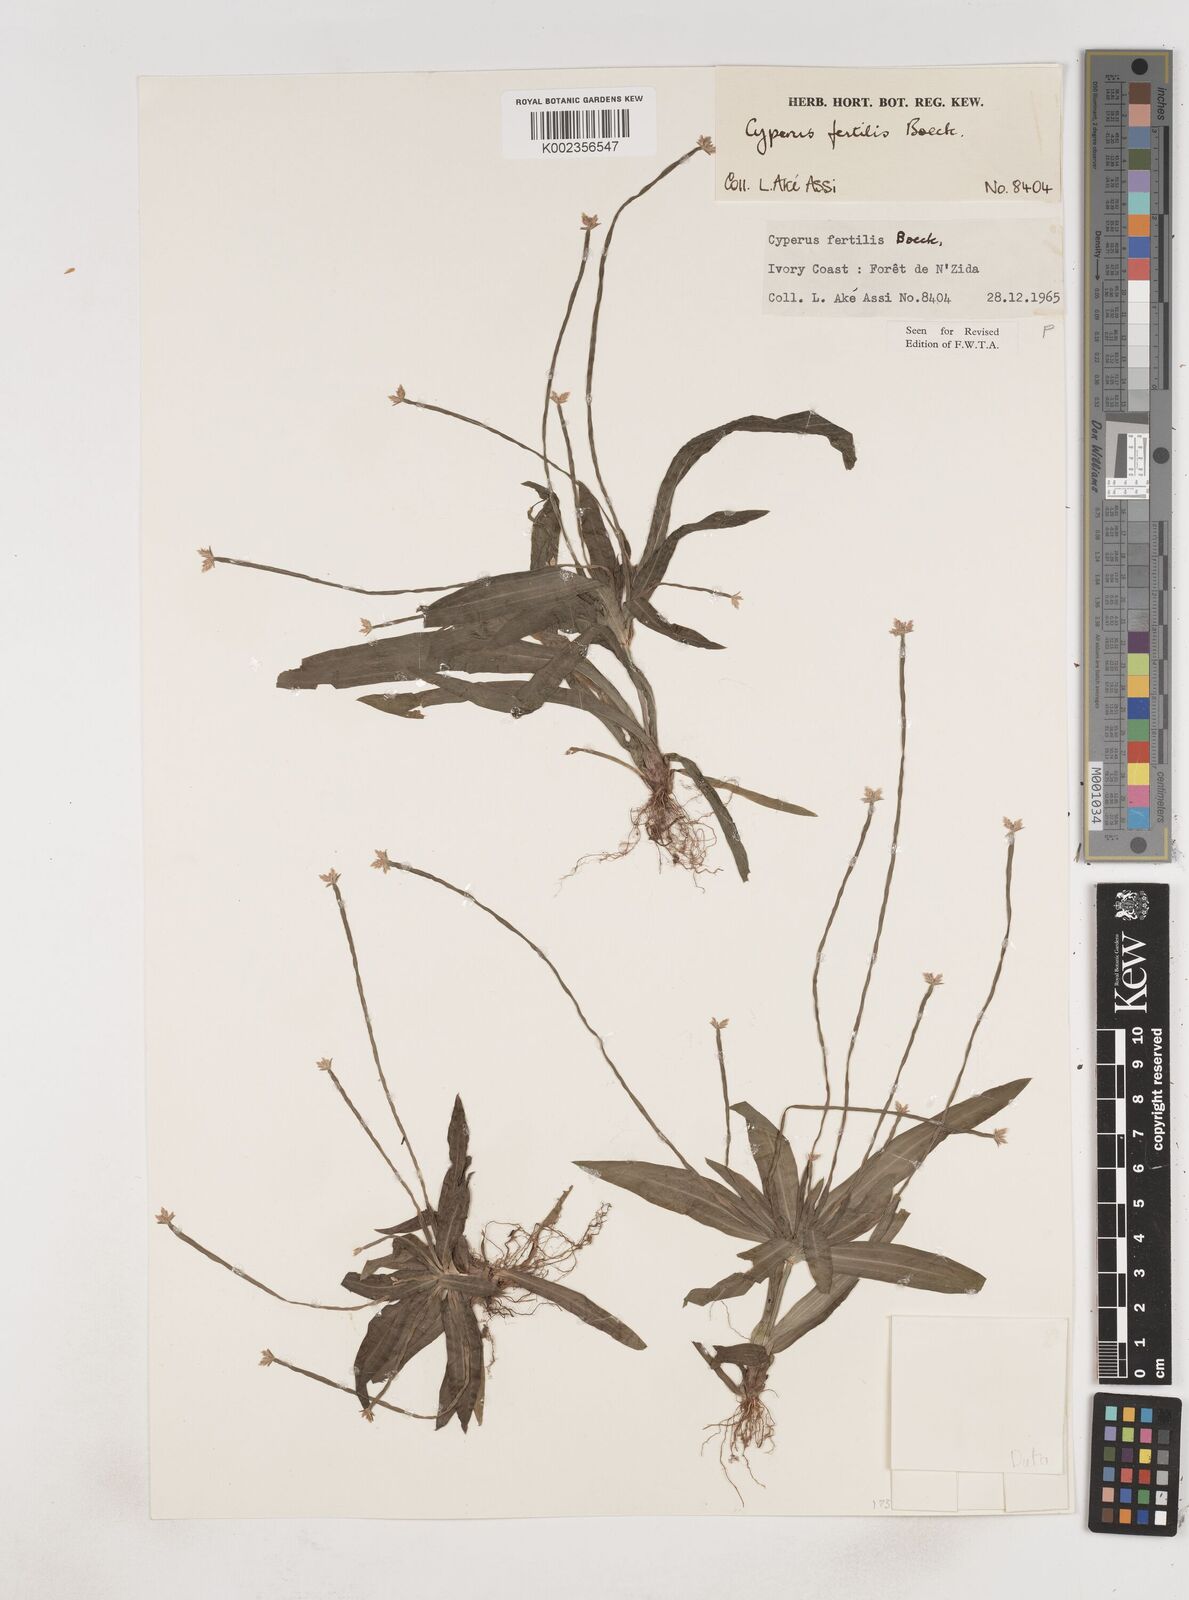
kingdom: Plantae
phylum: Tracheophyta
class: Liliopsida
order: Poales
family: Cyperaceae
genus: Cyperus
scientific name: Cyperus fertilis
